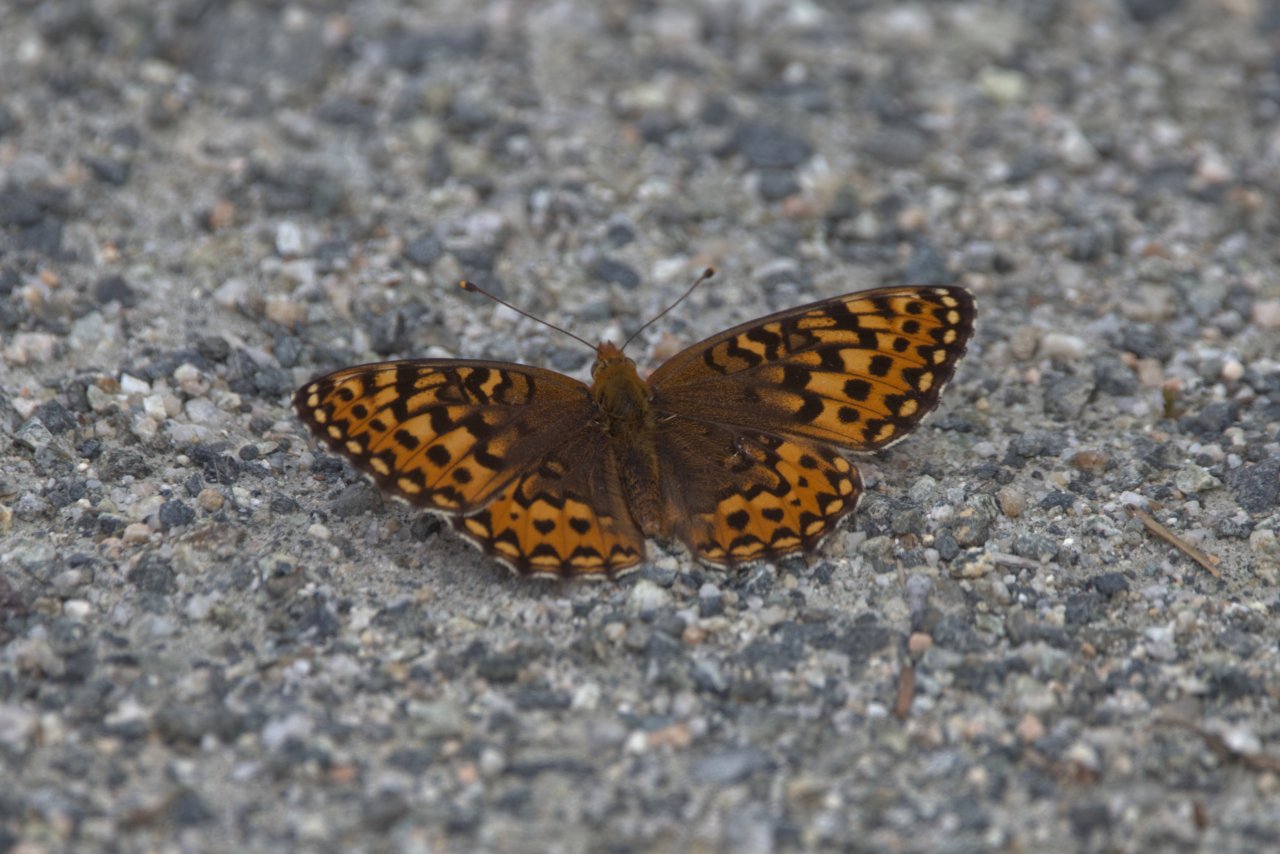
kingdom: Animalia
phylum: Arthropoda
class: Insecta
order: Lepidoptera
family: Nymphalidae
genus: Speyeria
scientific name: Speyeria hydaspe
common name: Hydaspe Fritillary
